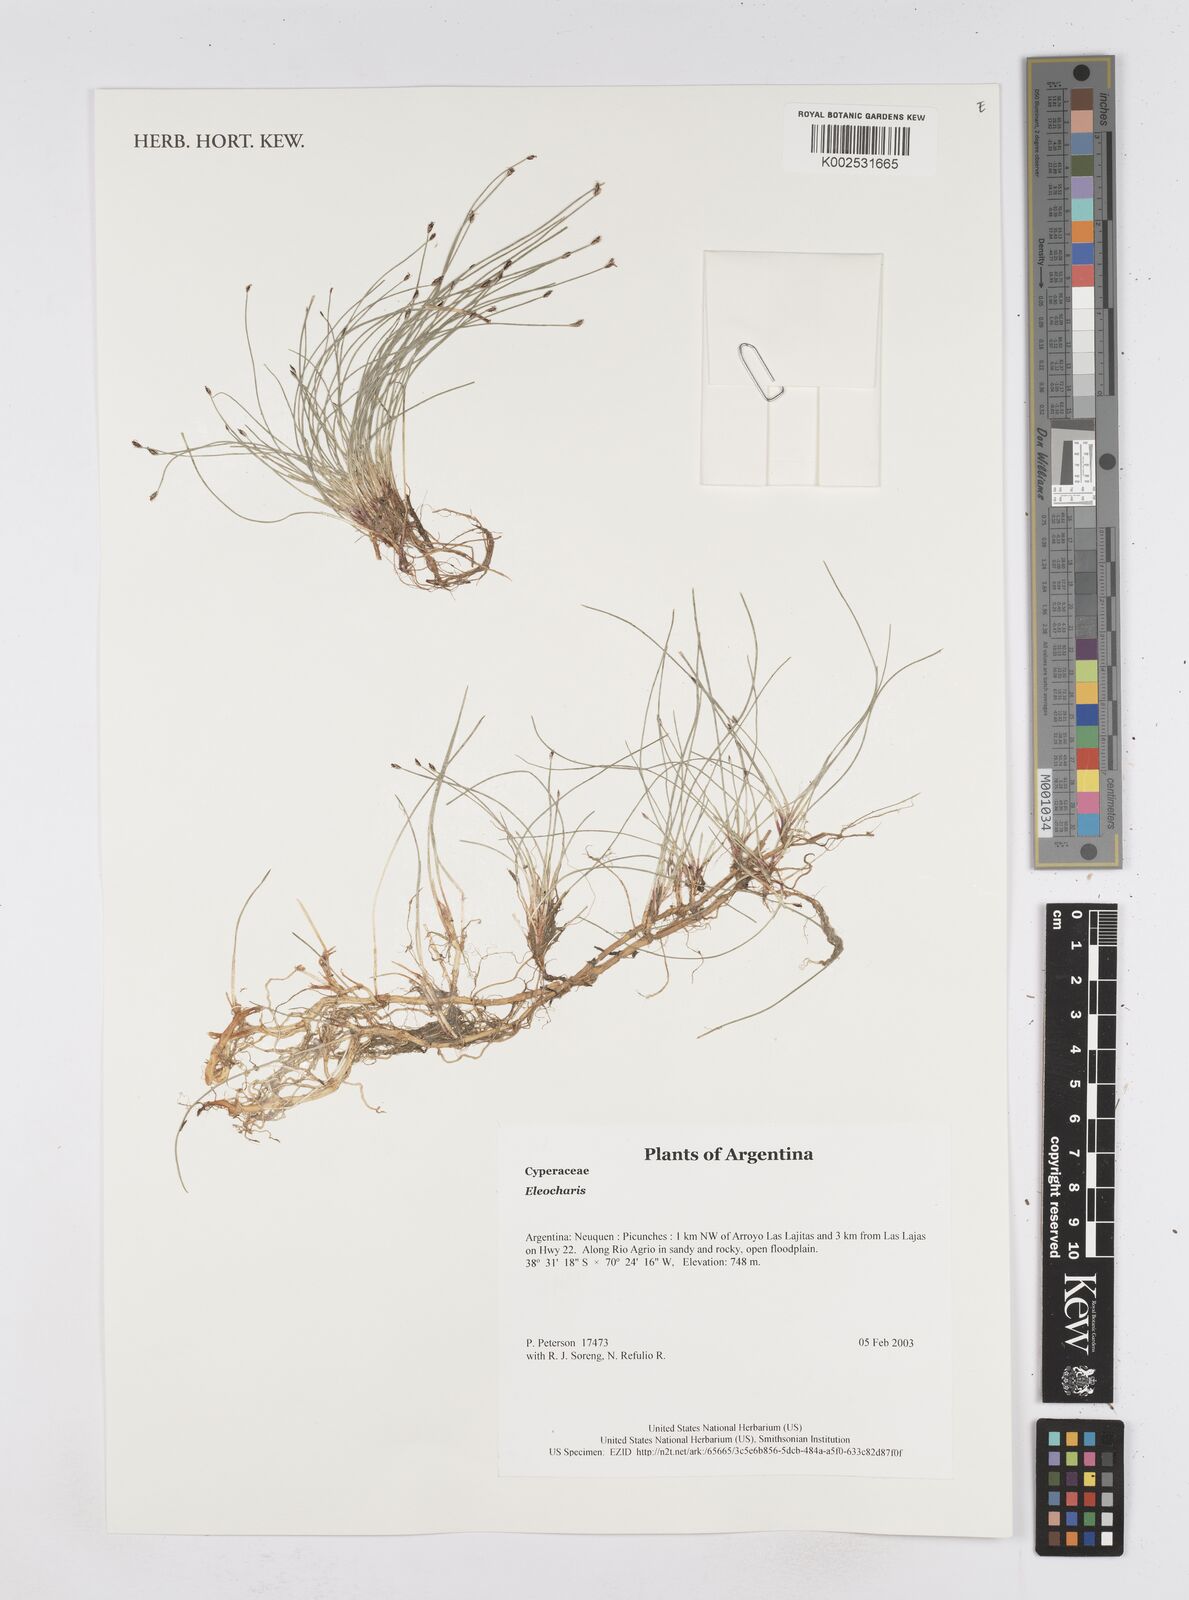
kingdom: Plantae
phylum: Tracheophyta
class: Liliopsida
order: Poales
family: Cyperaceae
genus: Eleocharis
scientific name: Eleocharis
